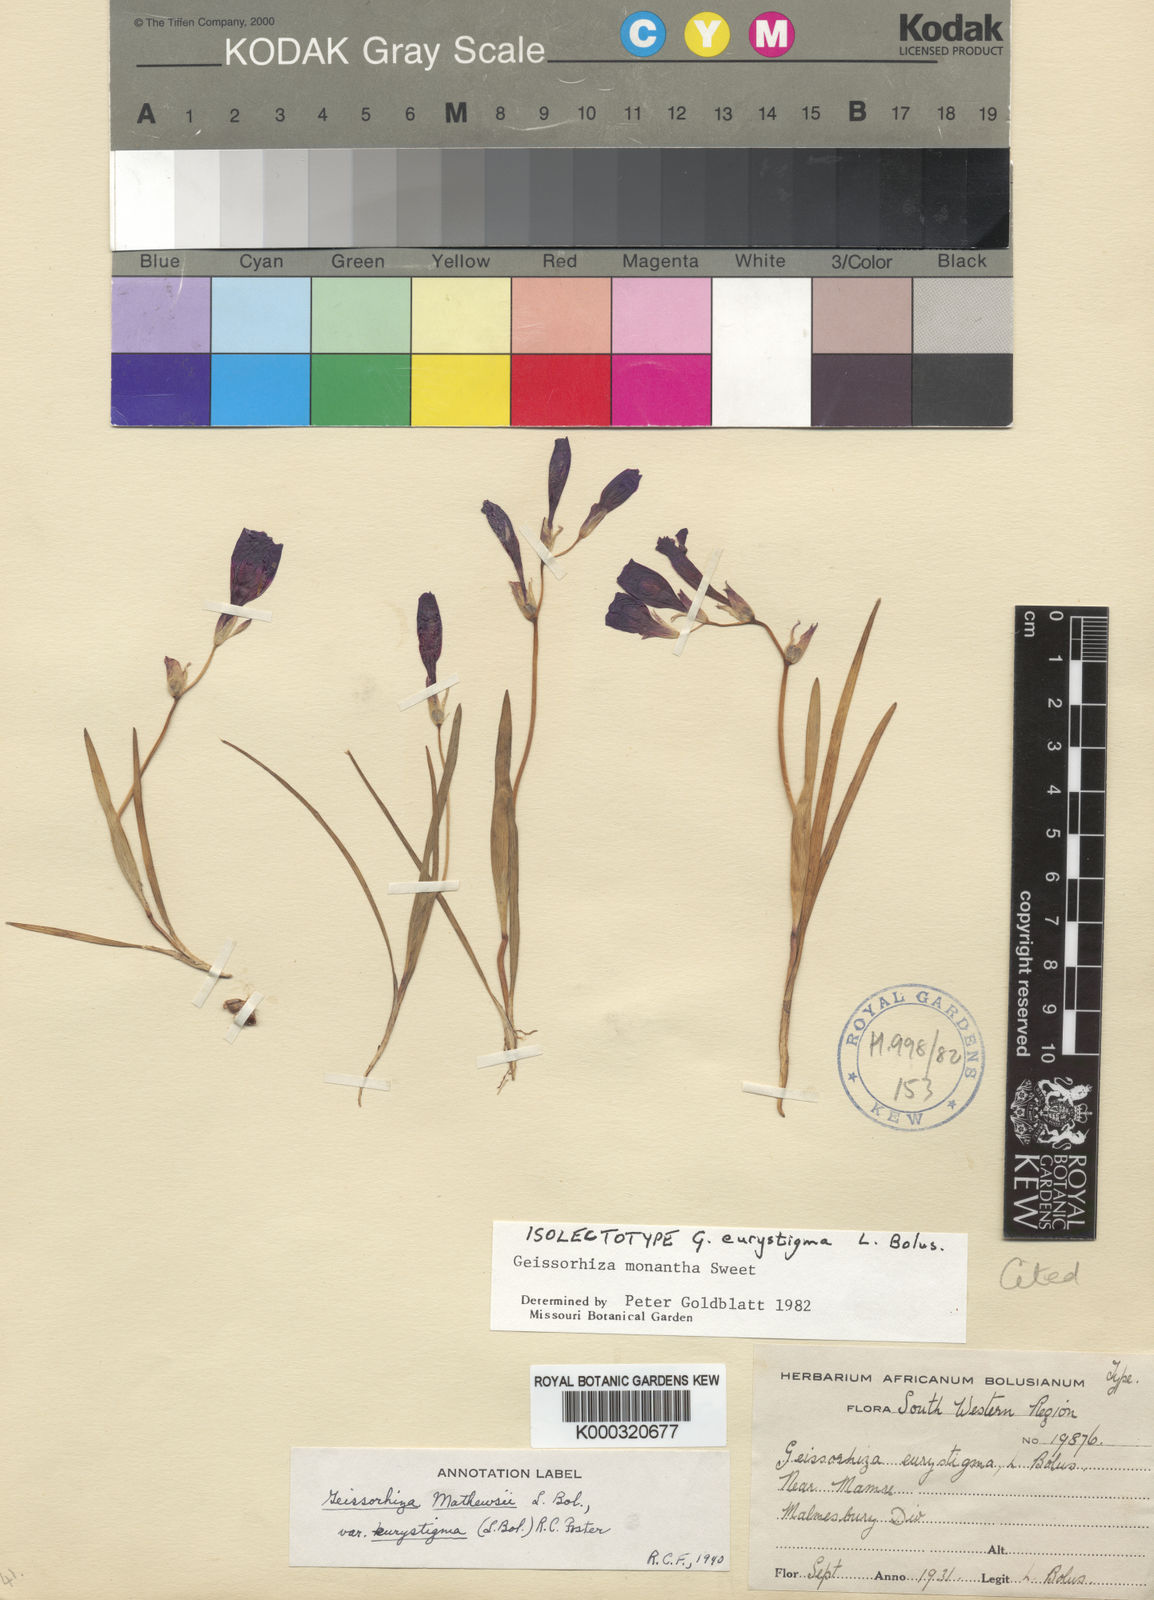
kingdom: Plantae
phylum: Tracheophyta
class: Liliopsida
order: Asparagales
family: Iridaceae
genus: Geissorhiza
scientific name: Geissorhiza eurystigma
